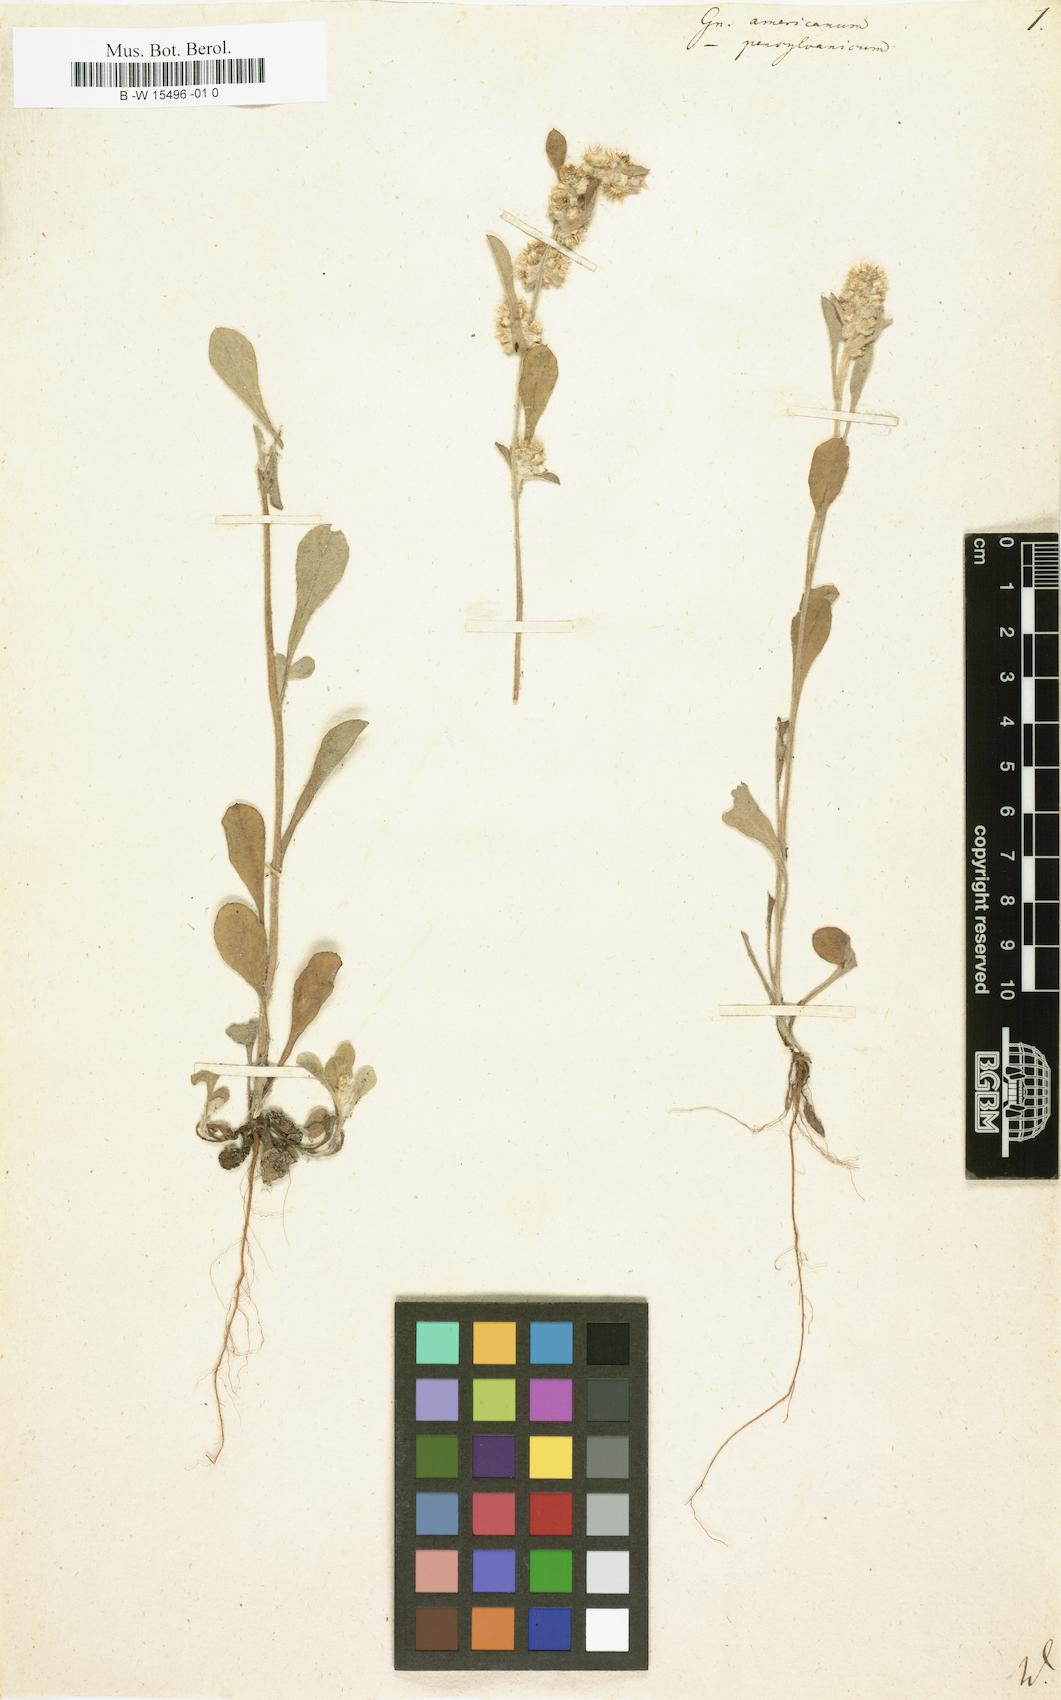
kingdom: Plantae
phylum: Tracheophyta
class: Magnoliopsida
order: Asterales
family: Asteraceae
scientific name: Asteraceae
